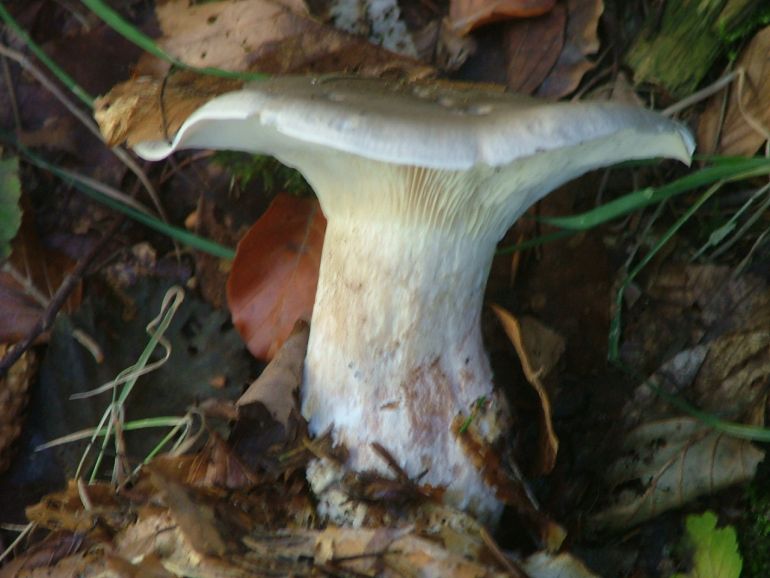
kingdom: Fungi
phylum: Basidiomycota
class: Agaricomycetes
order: Agaricales
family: Tricholomataceae
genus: Clitocybe
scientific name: Clitocybe nebularis
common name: tåge-tragthat
